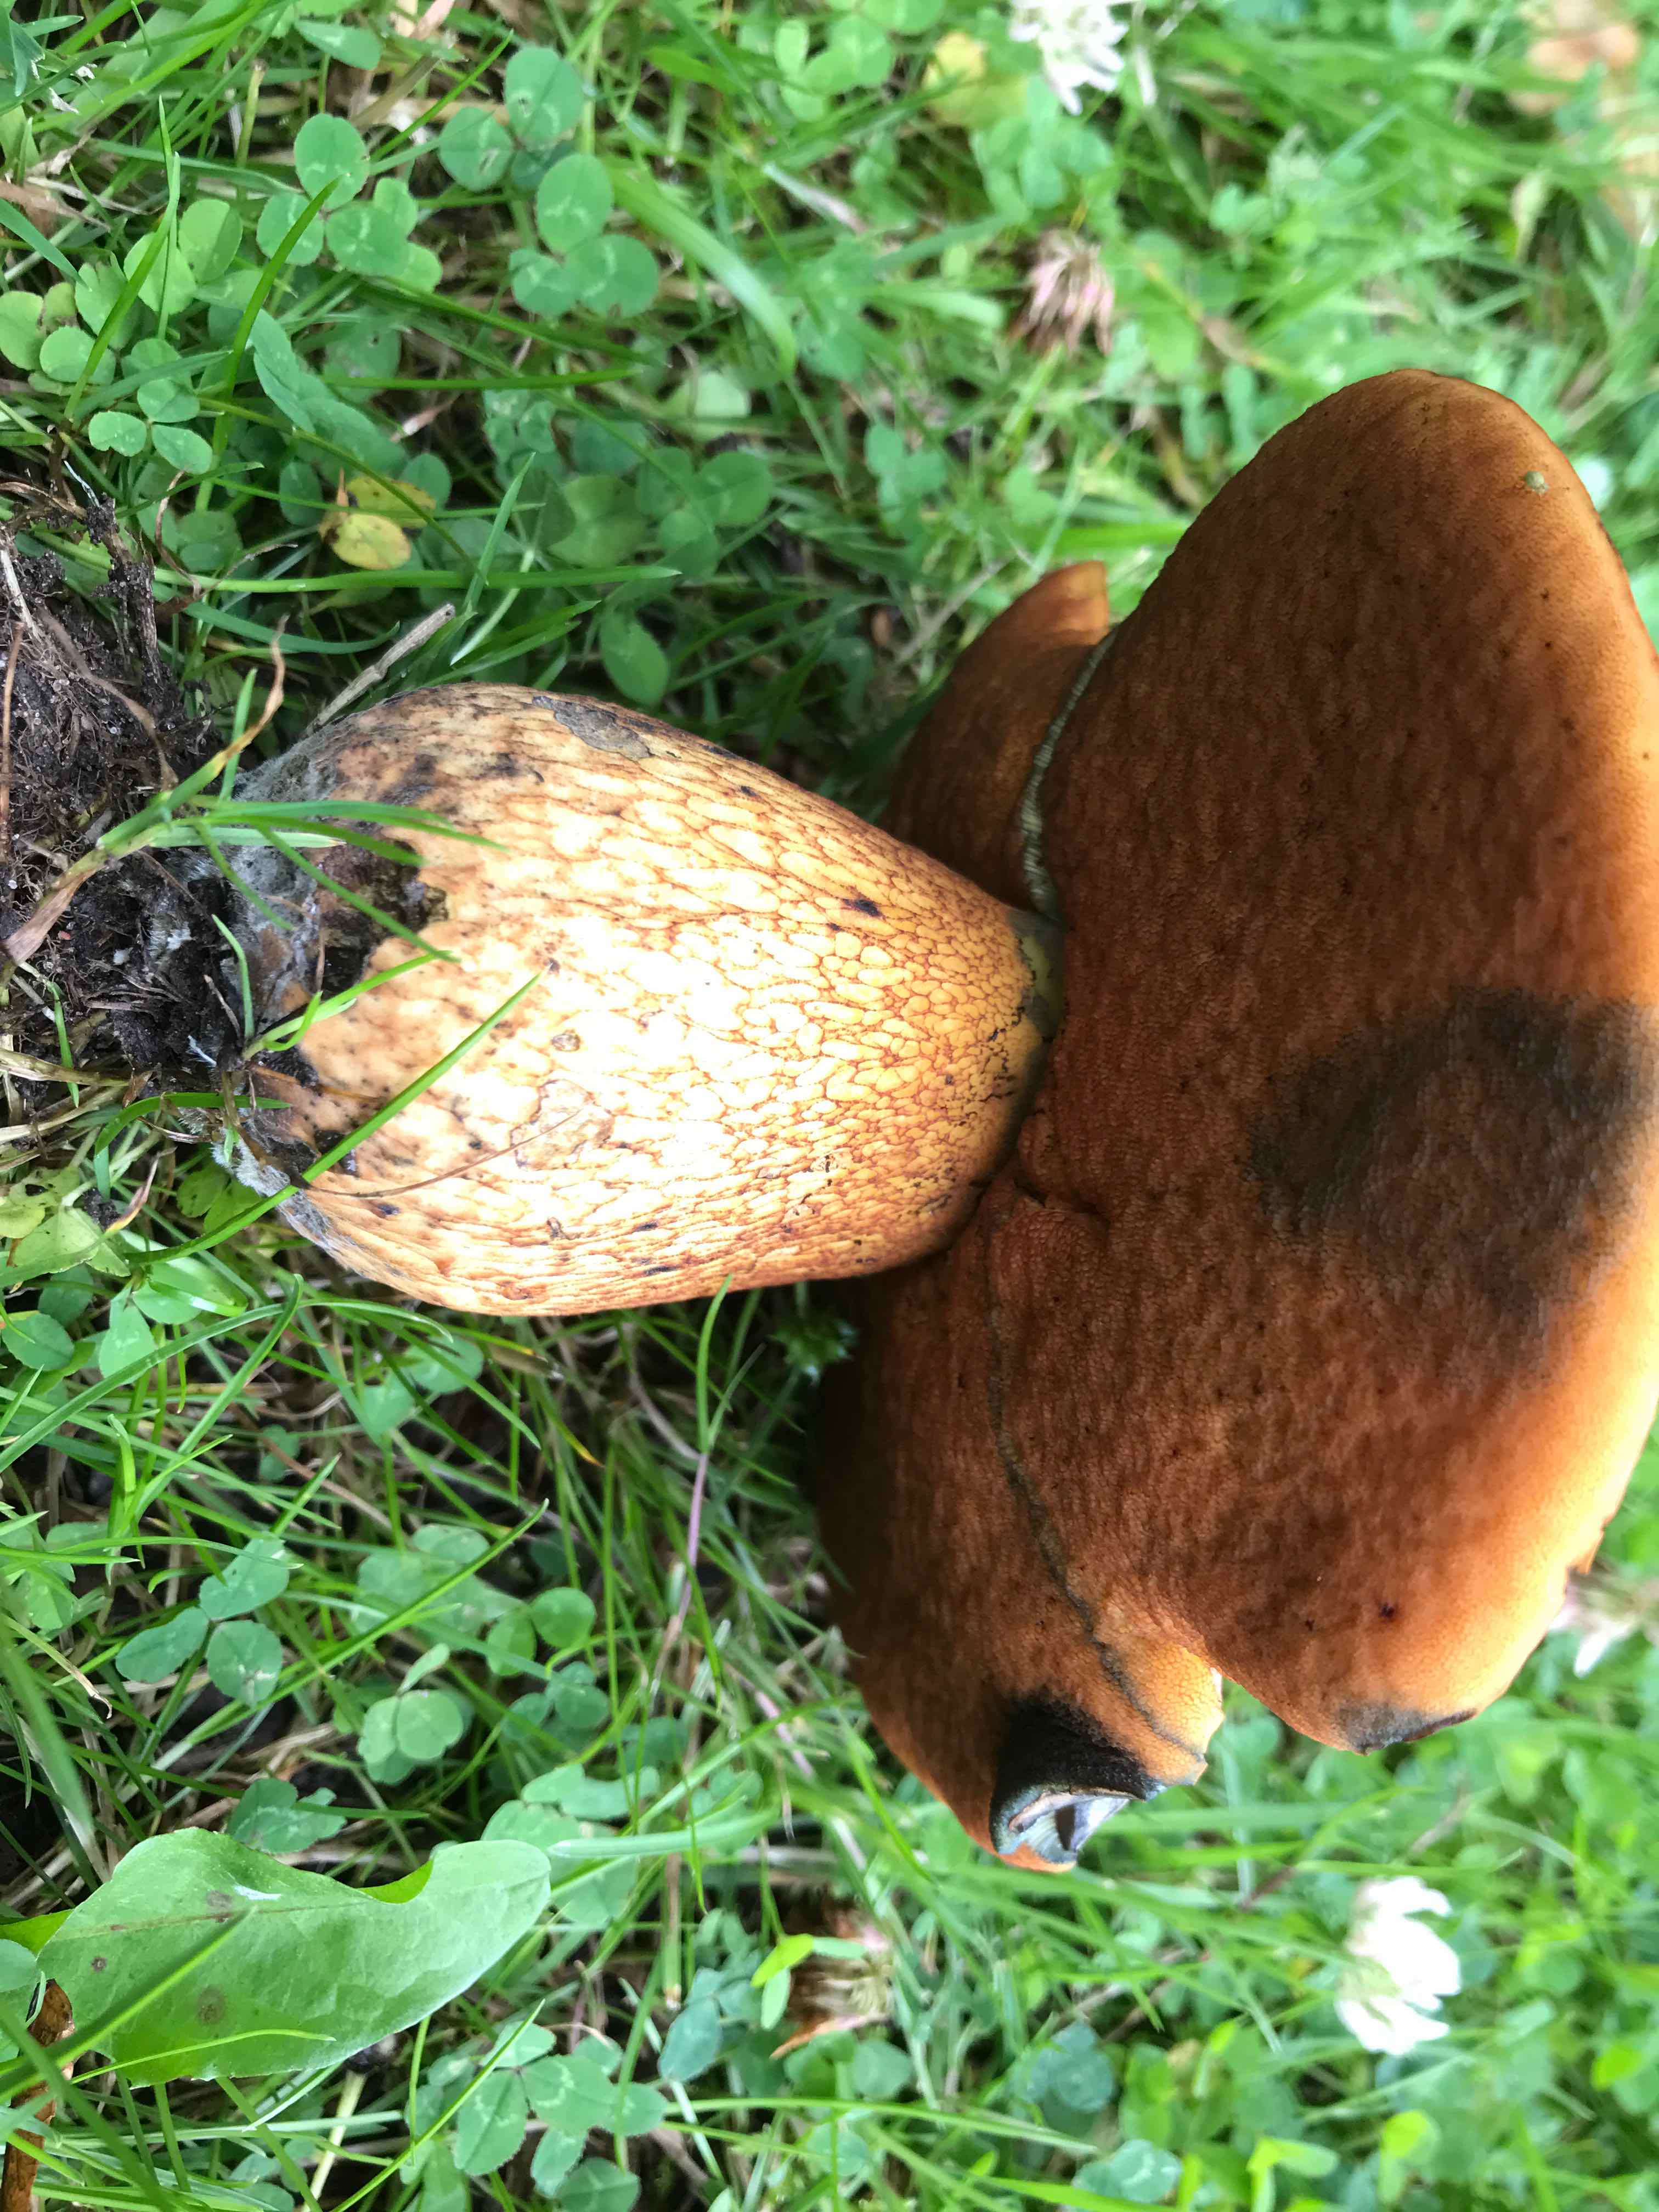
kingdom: Fungi
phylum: Basidiomycota
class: Agaricomycetes
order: Boletales
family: Boletaceae
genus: Suillellus
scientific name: Suillellus luridus
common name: netstokket indigorørhat
